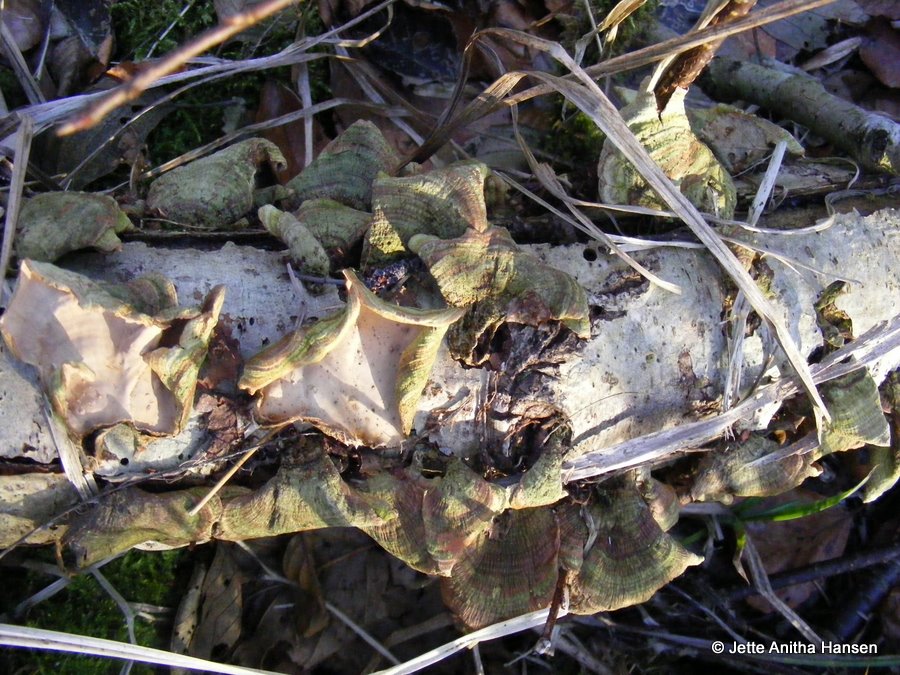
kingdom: Fungi
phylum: Basidiomycota
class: Agaricomycetes
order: Russulales
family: Stereaceae
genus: Stereum
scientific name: Stereum subtomentosum
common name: smuk lædersvamp
